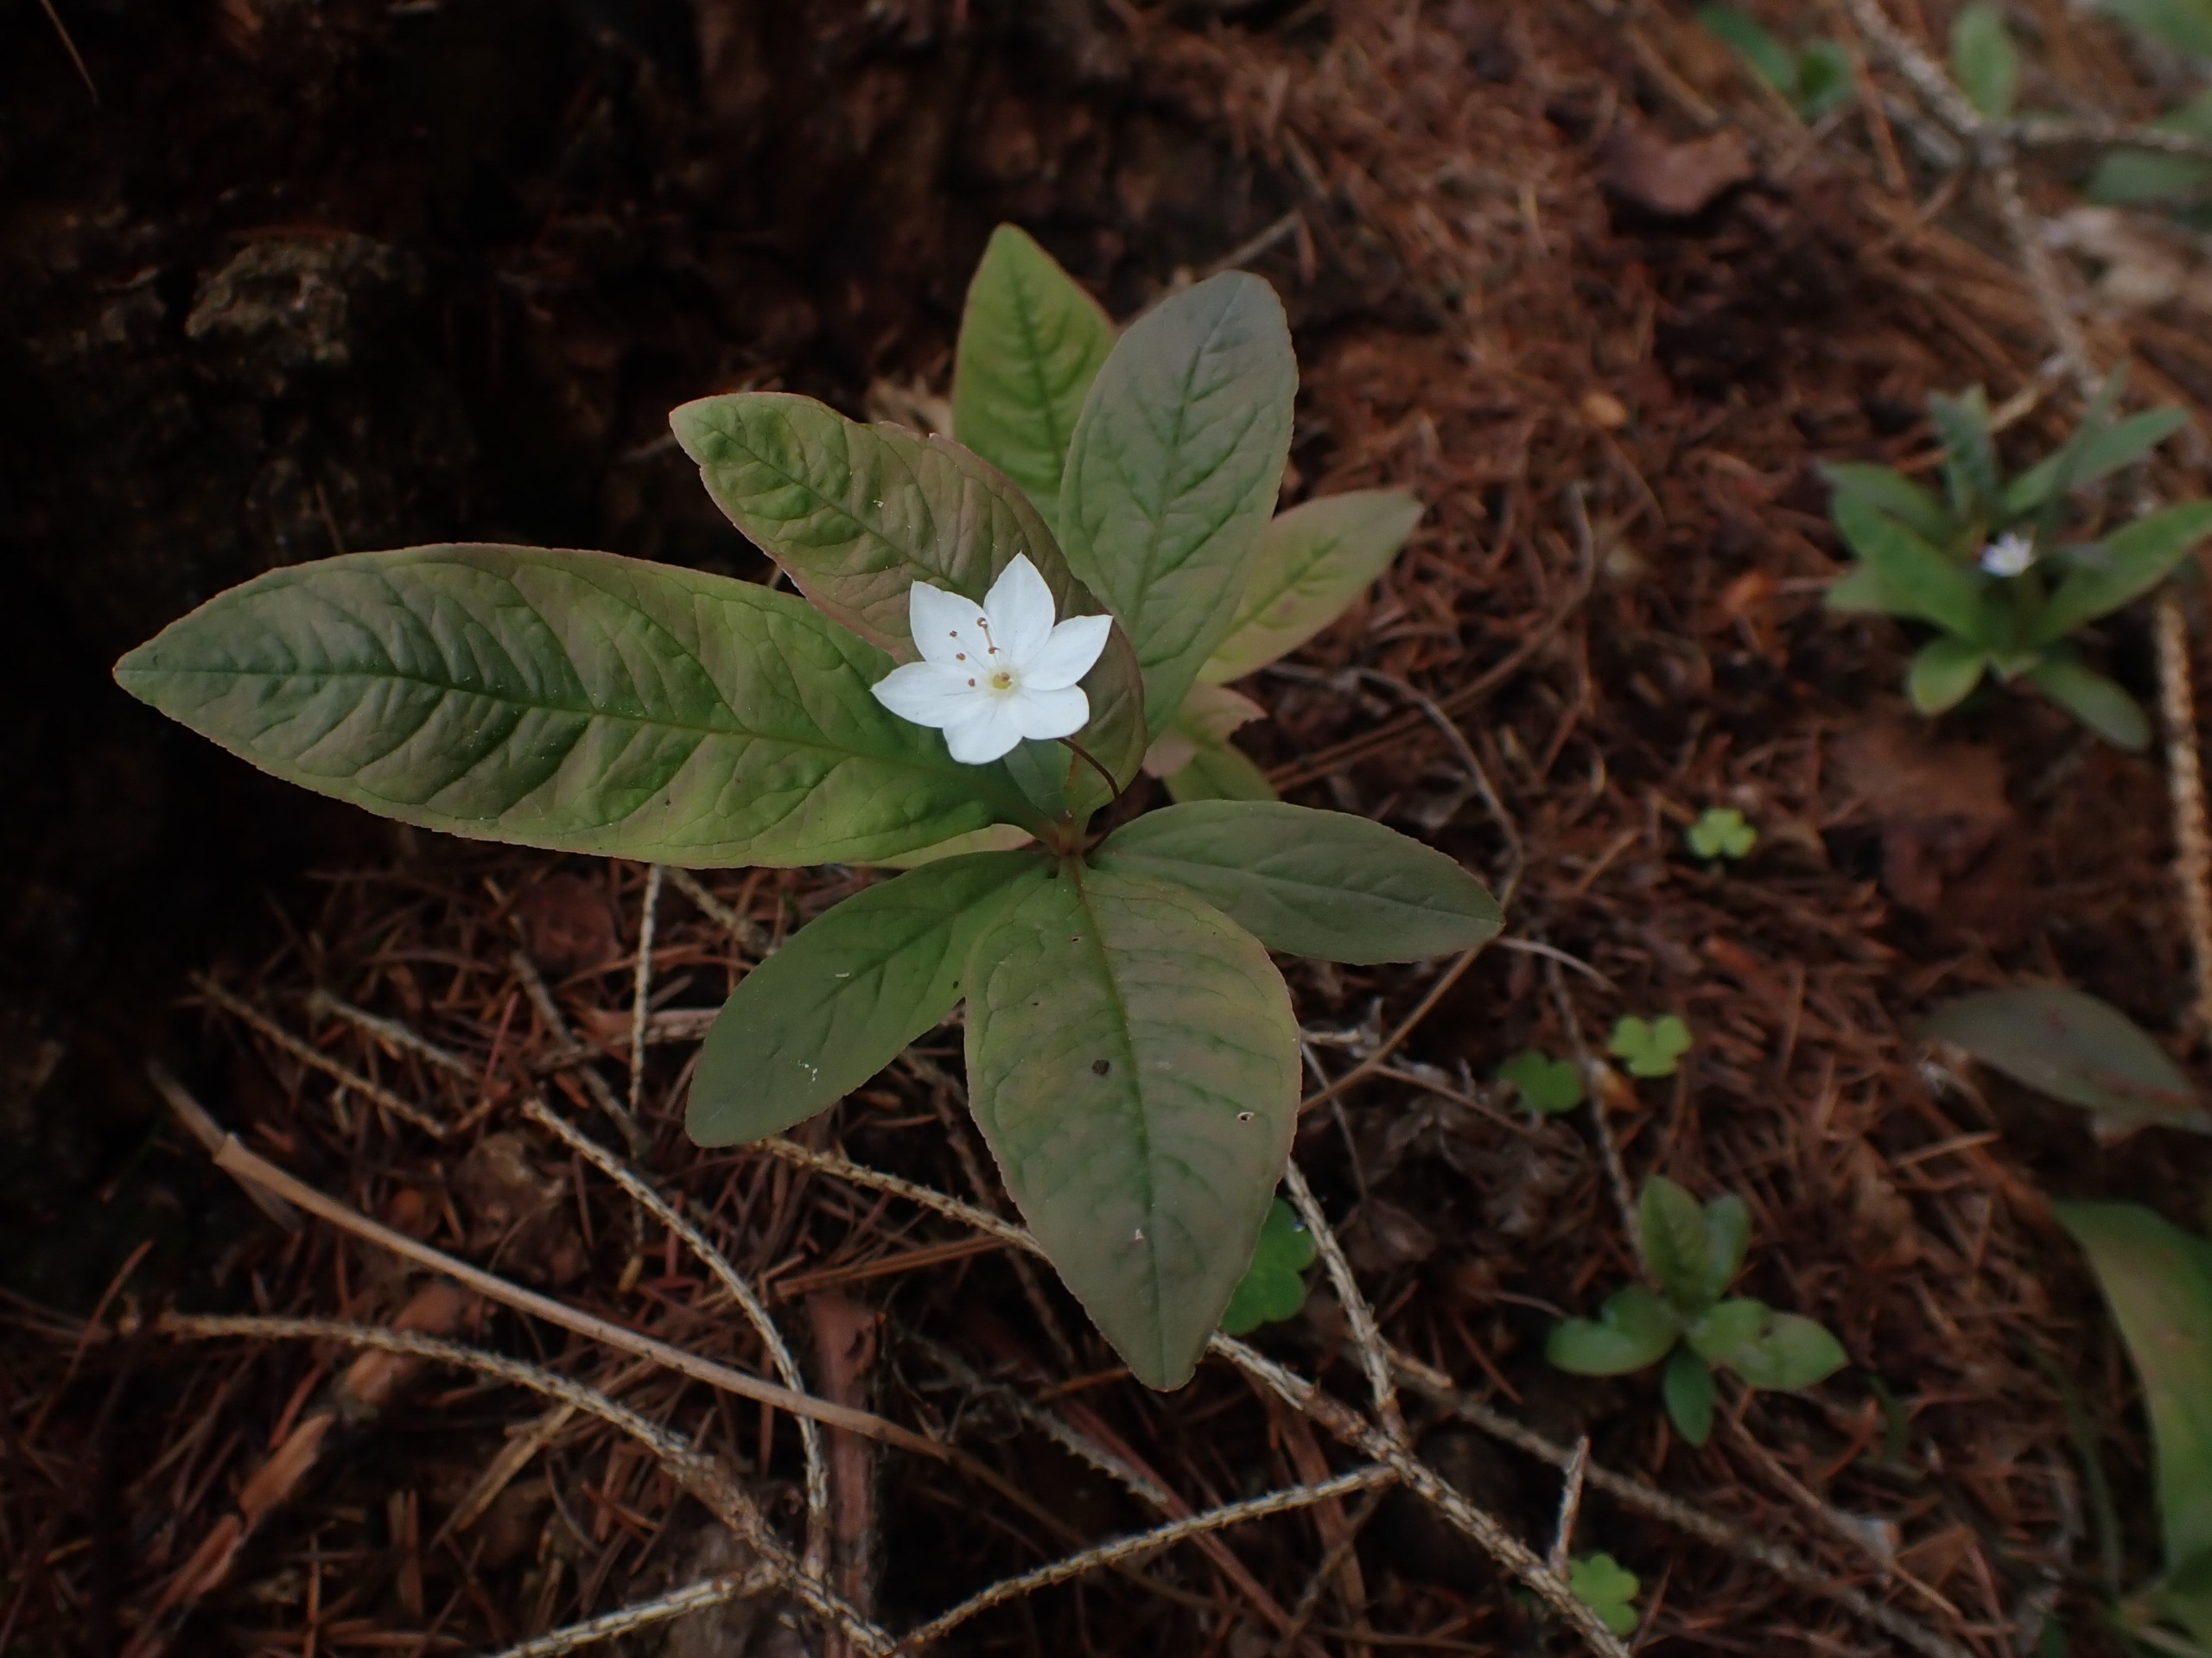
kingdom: Plantae
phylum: Tracheophyta
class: Magnoliopsida
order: Ericales
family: Primulaceae
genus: Lysimachia
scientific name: Lysimachia europaea
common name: Skovstjerne
